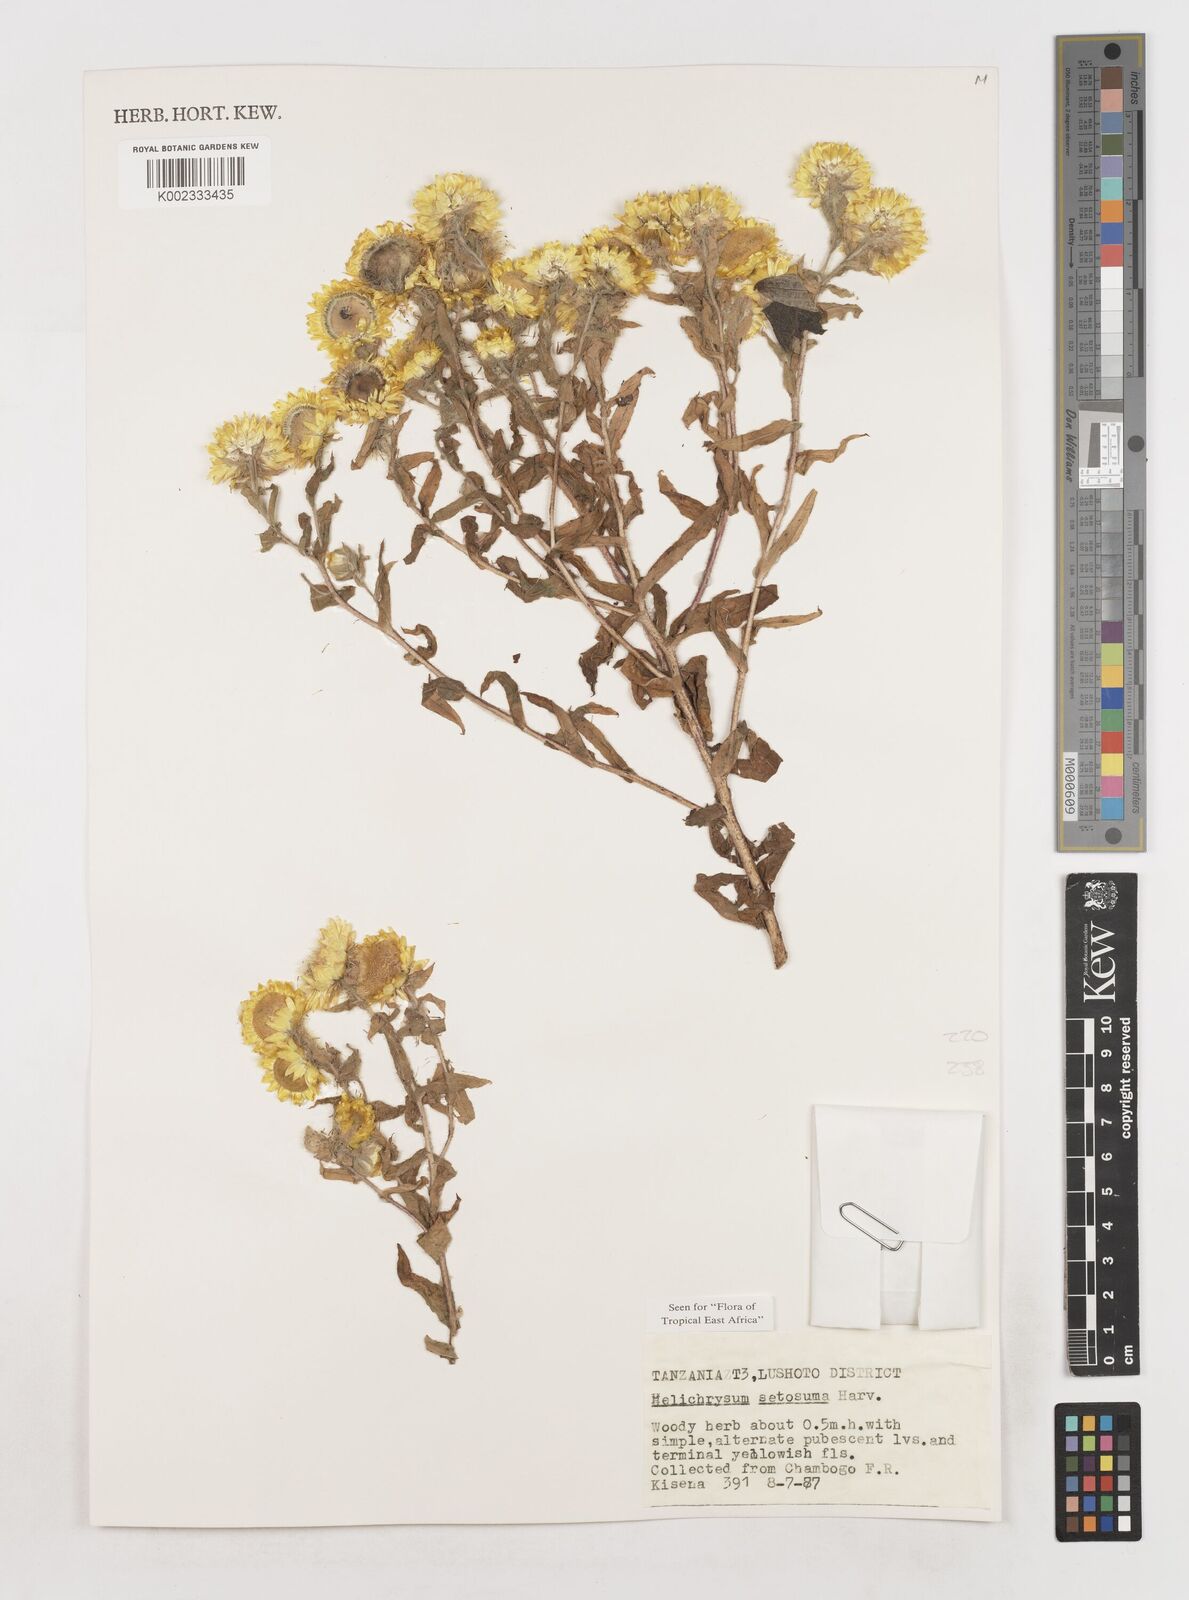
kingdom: Plantae
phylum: Tracheophyta
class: Magnoliopsida
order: Asterales
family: Asteraceae
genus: Helichrysum
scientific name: Helichrysum setosum
